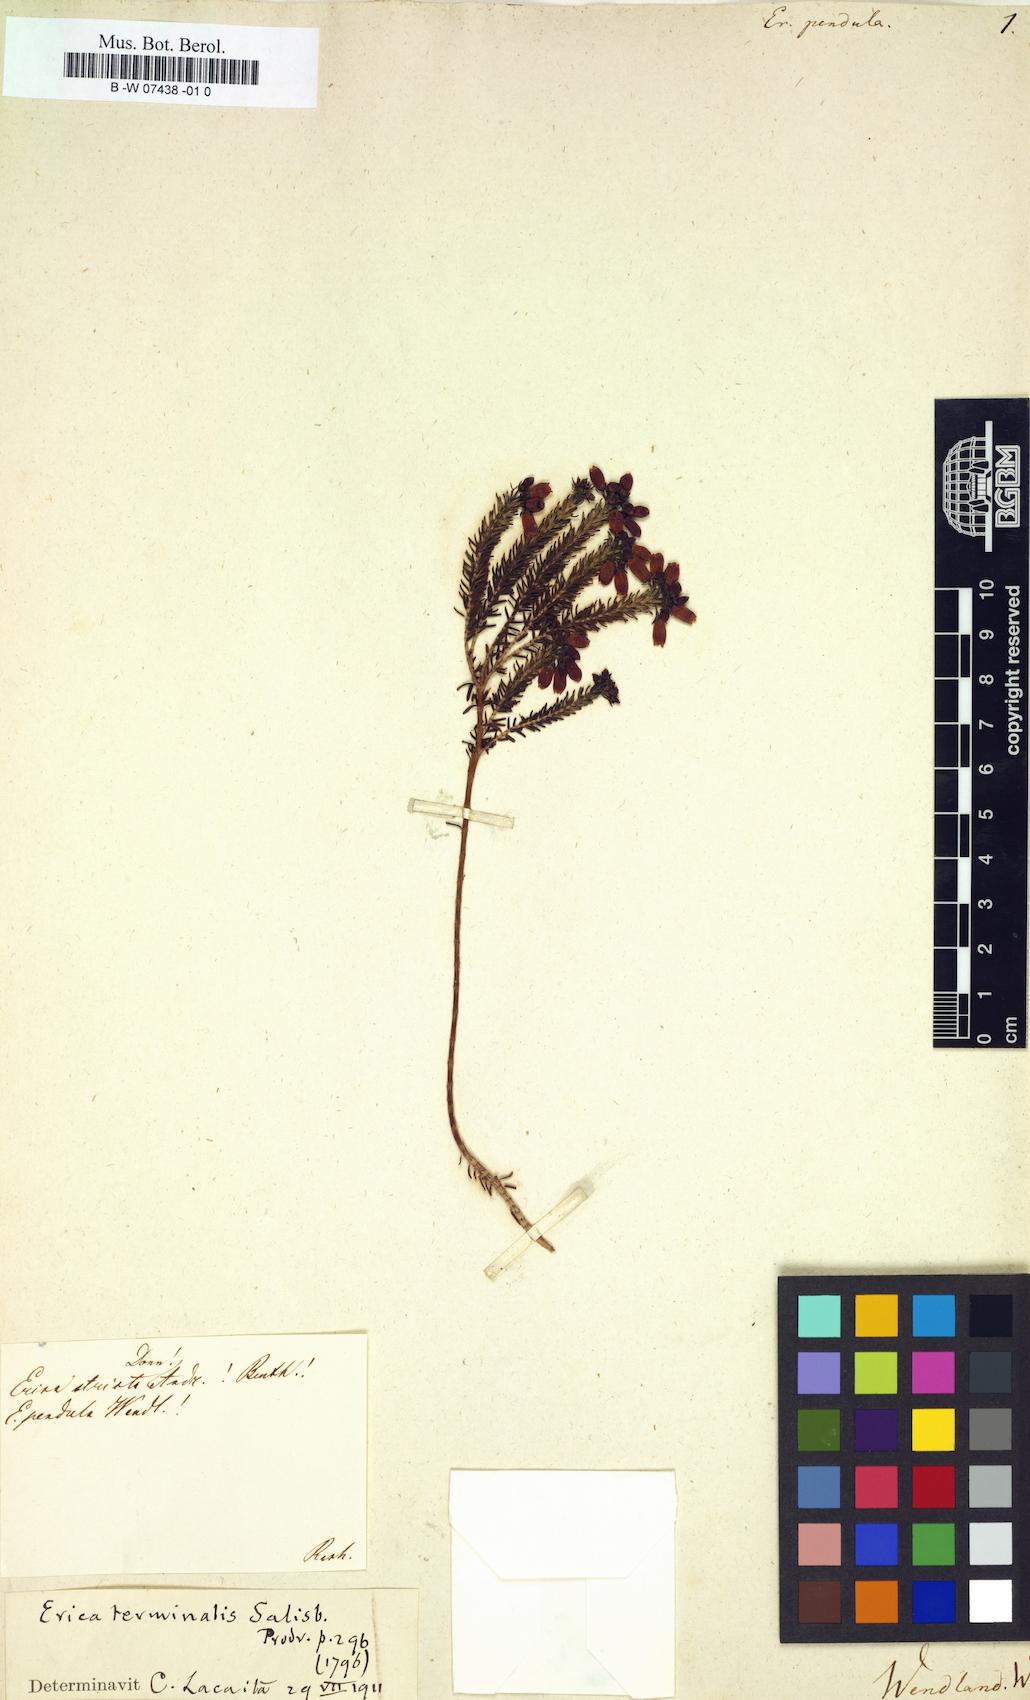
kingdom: Plantae
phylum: Tracheophyta
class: Magnoliopsida
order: Ericales
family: Ericaceae
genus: Erica
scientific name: Erica
